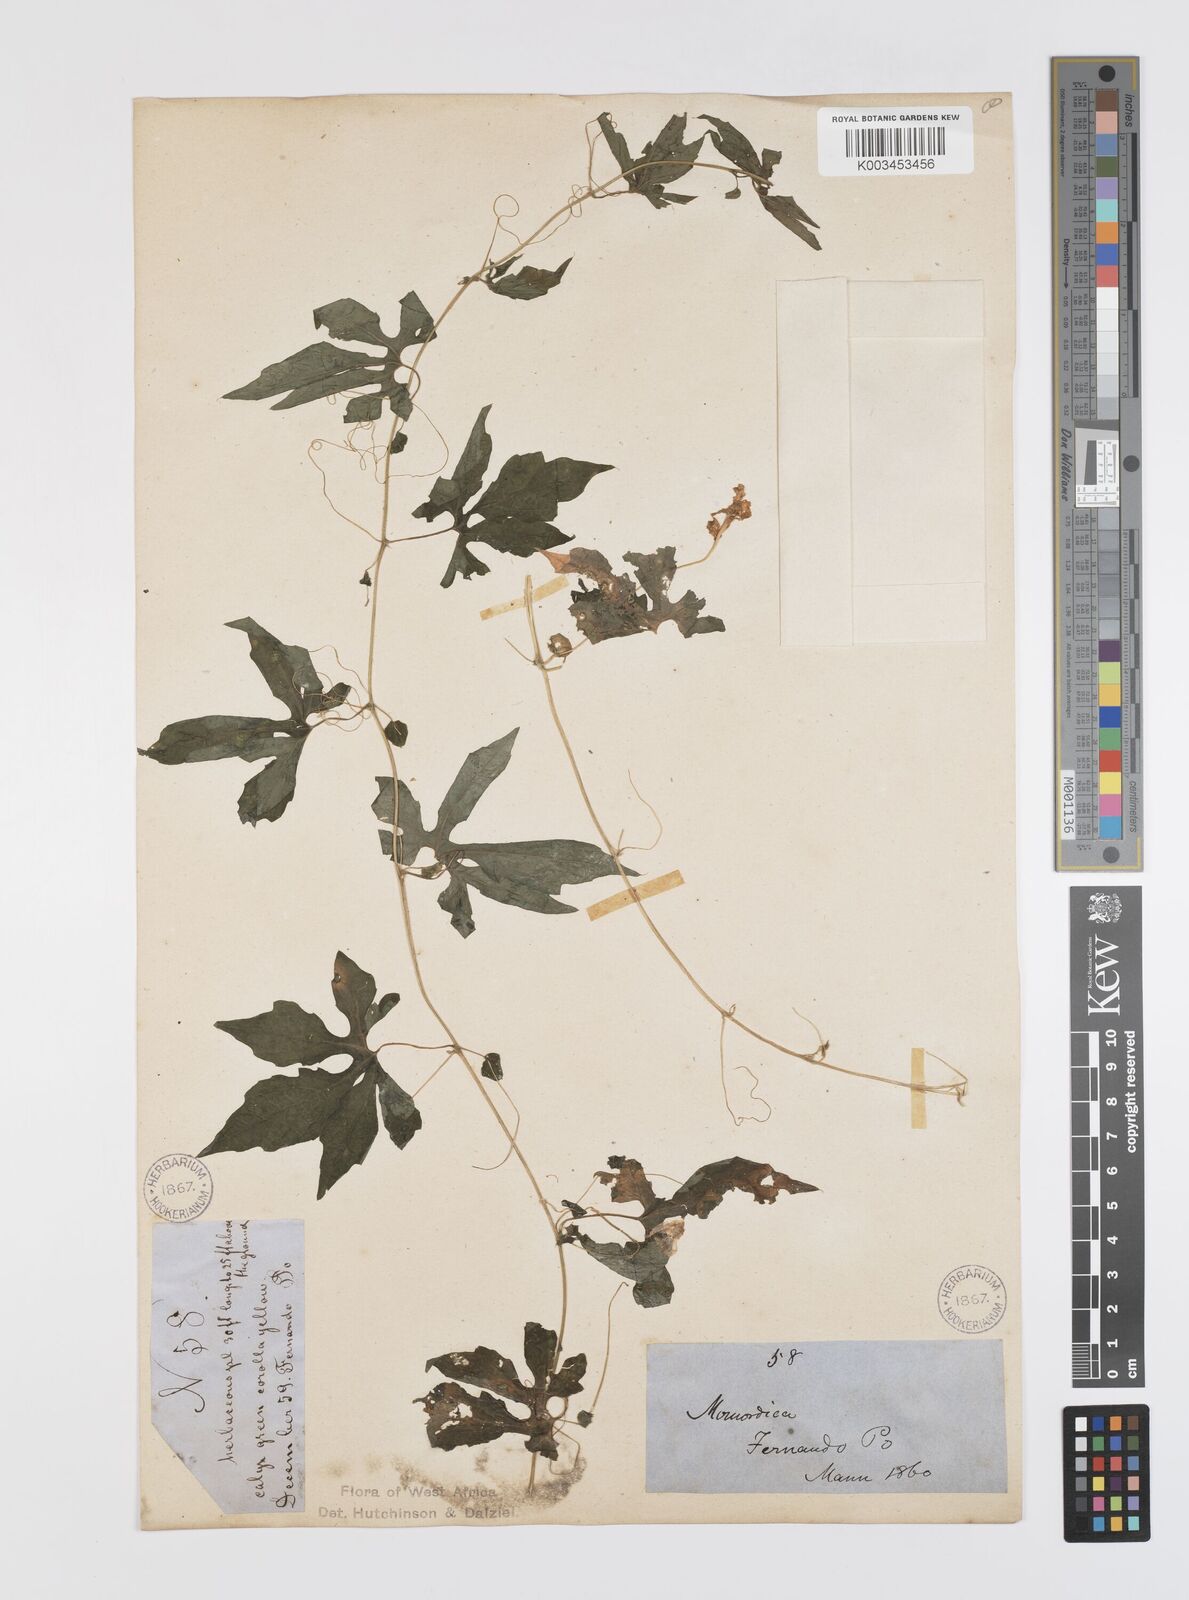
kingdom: Plantae
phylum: Tracheophyta
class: Magnoliopsida
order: Cucurbitales
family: Cucurbitaceae
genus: Momordica
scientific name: Momordica charantia
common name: Balsampear
